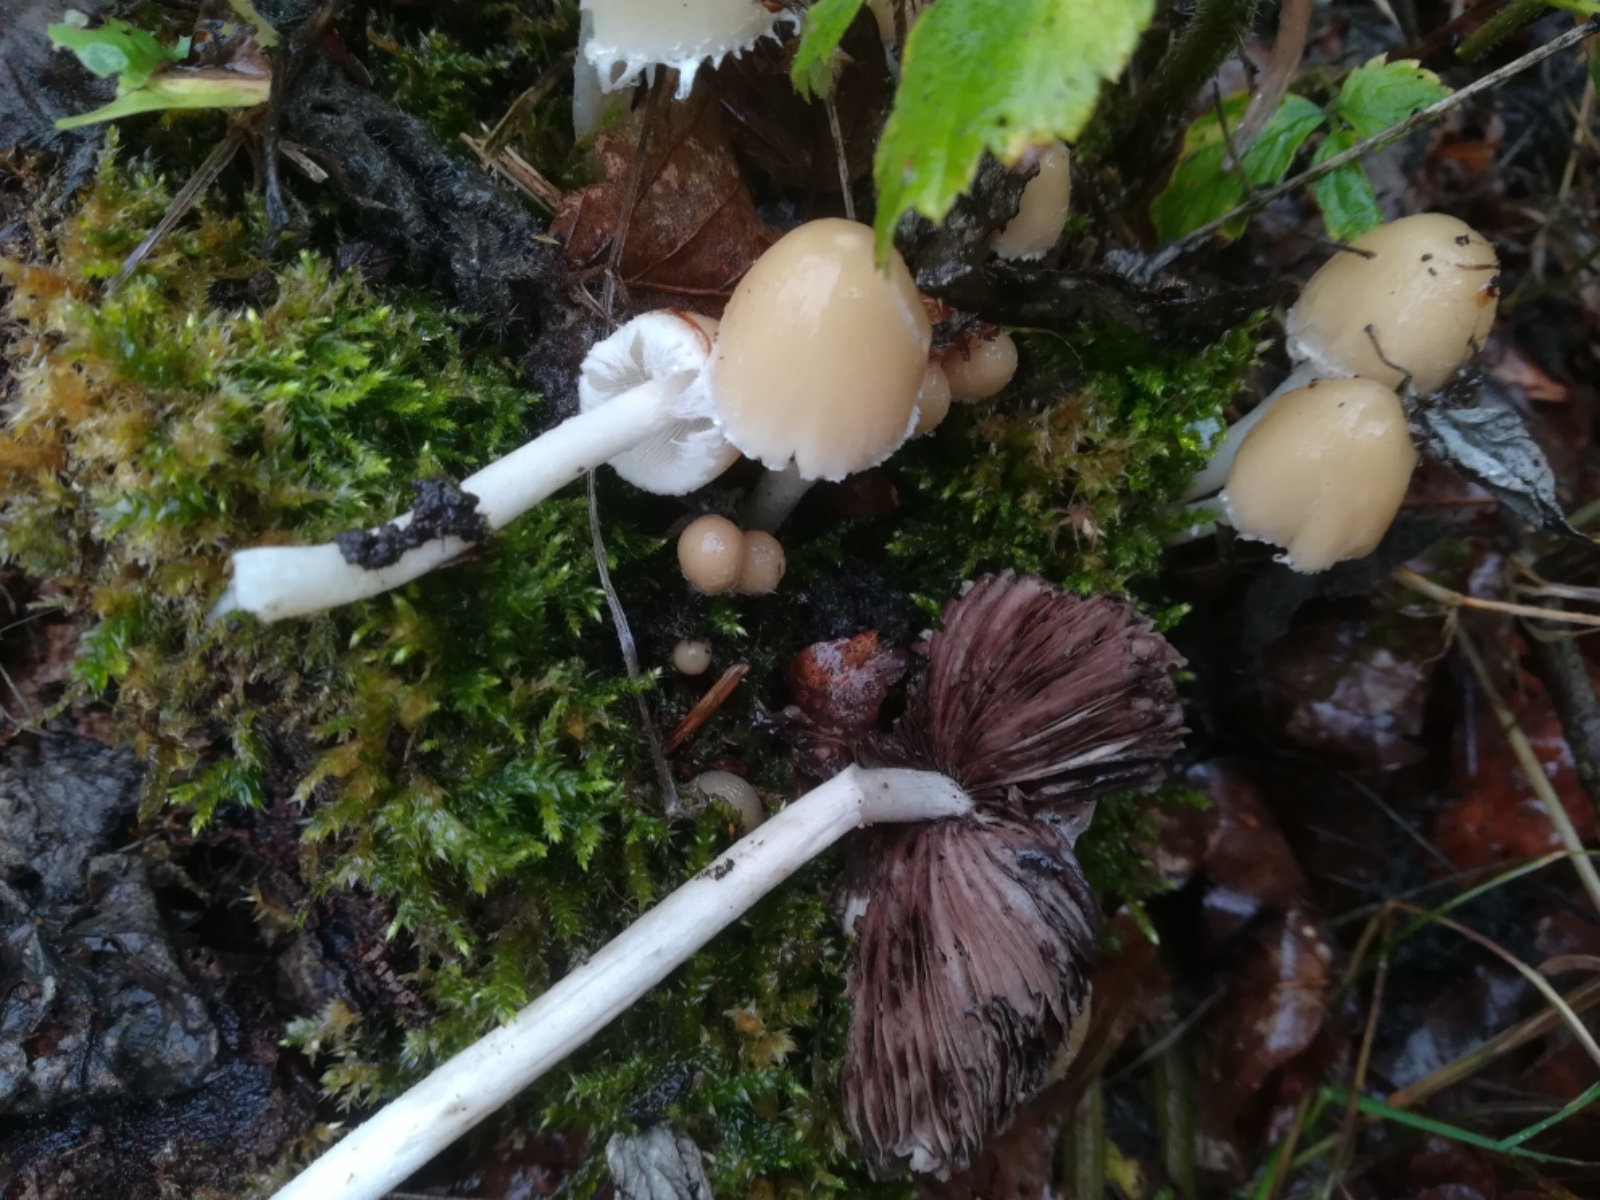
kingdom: Fungi
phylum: Basidiomycota
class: Agaricomycetes
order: Agaricales
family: Psathyrellaceae
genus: Candolleomyces
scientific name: Candolleomyces candolleanus
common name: Candolles mørkhat
